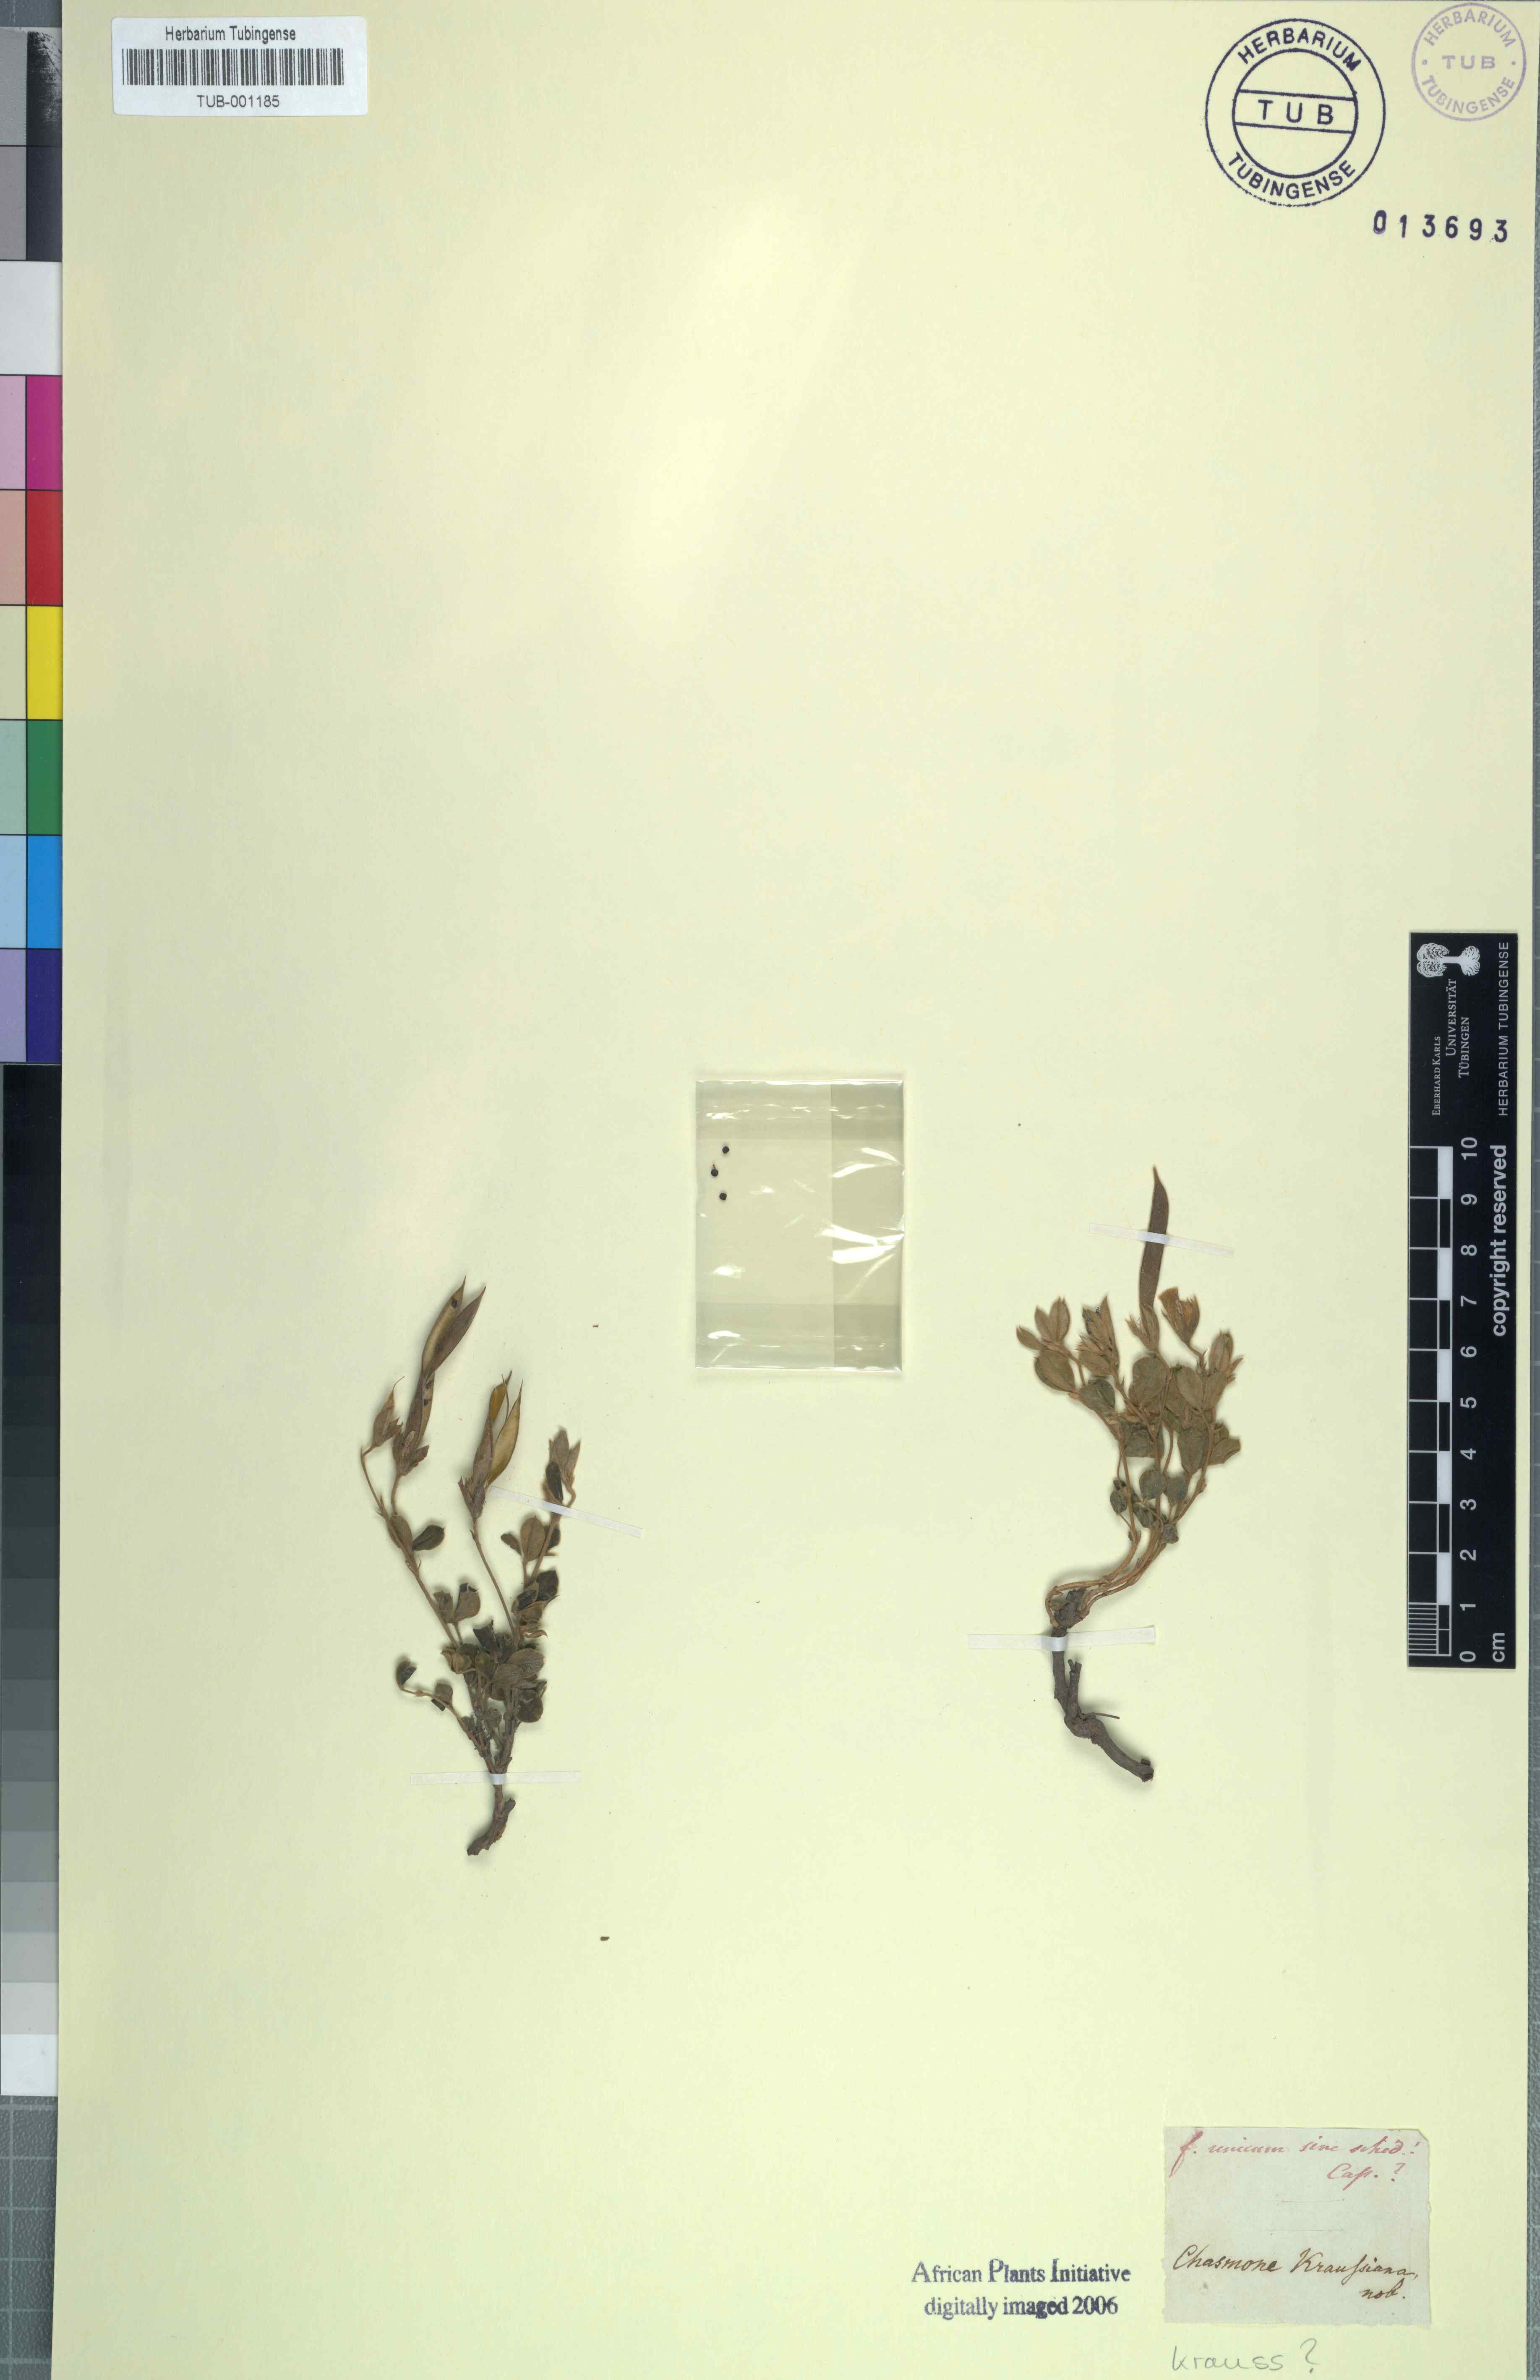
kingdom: Plantae
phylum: Tracheophyta
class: Magnoliopsida
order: Fabales
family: Fabaceae
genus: Argyrolobium
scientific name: Argyrolobium tuberosum
